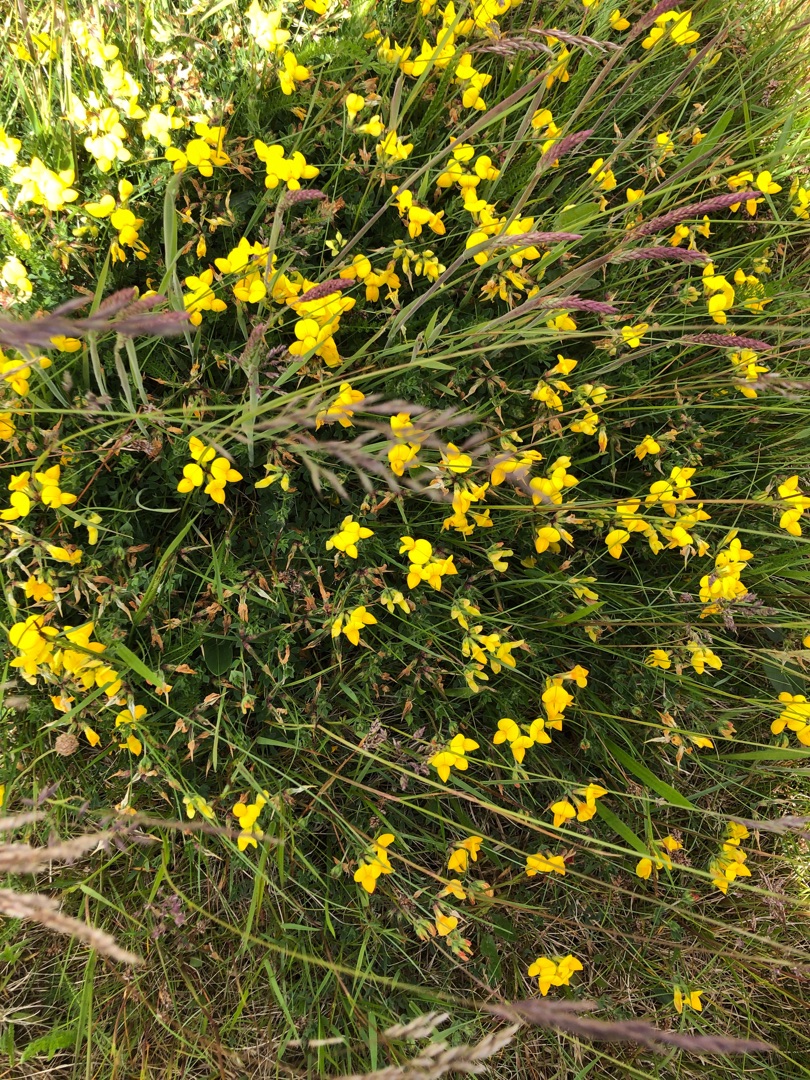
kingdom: Plantae
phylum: Tracheophyta
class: Magnoliopsida
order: Fabales
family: Fabaceae
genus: Lotus
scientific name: Lotus corniculatus
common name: Almindelig kællingetand
